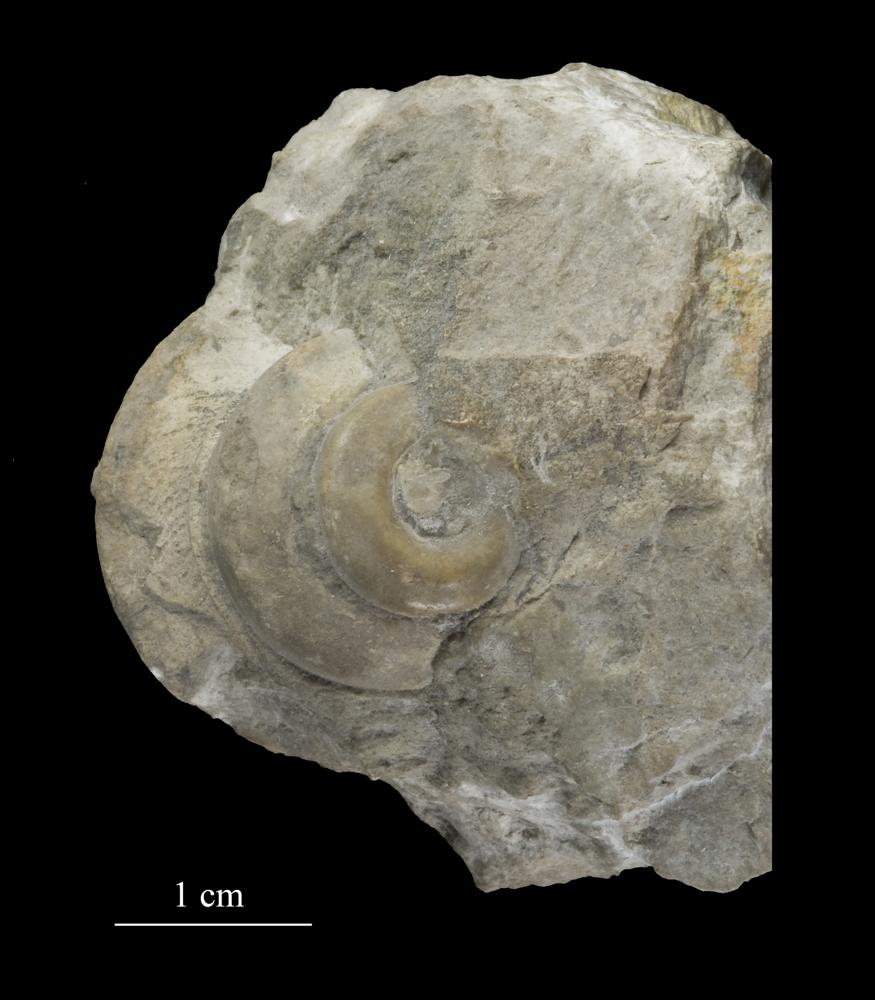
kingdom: Animalia
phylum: Mollusca
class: Gastropoda
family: Lophospiridae
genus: Loxoplocus
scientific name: Loxoplocus Turbo silurica
